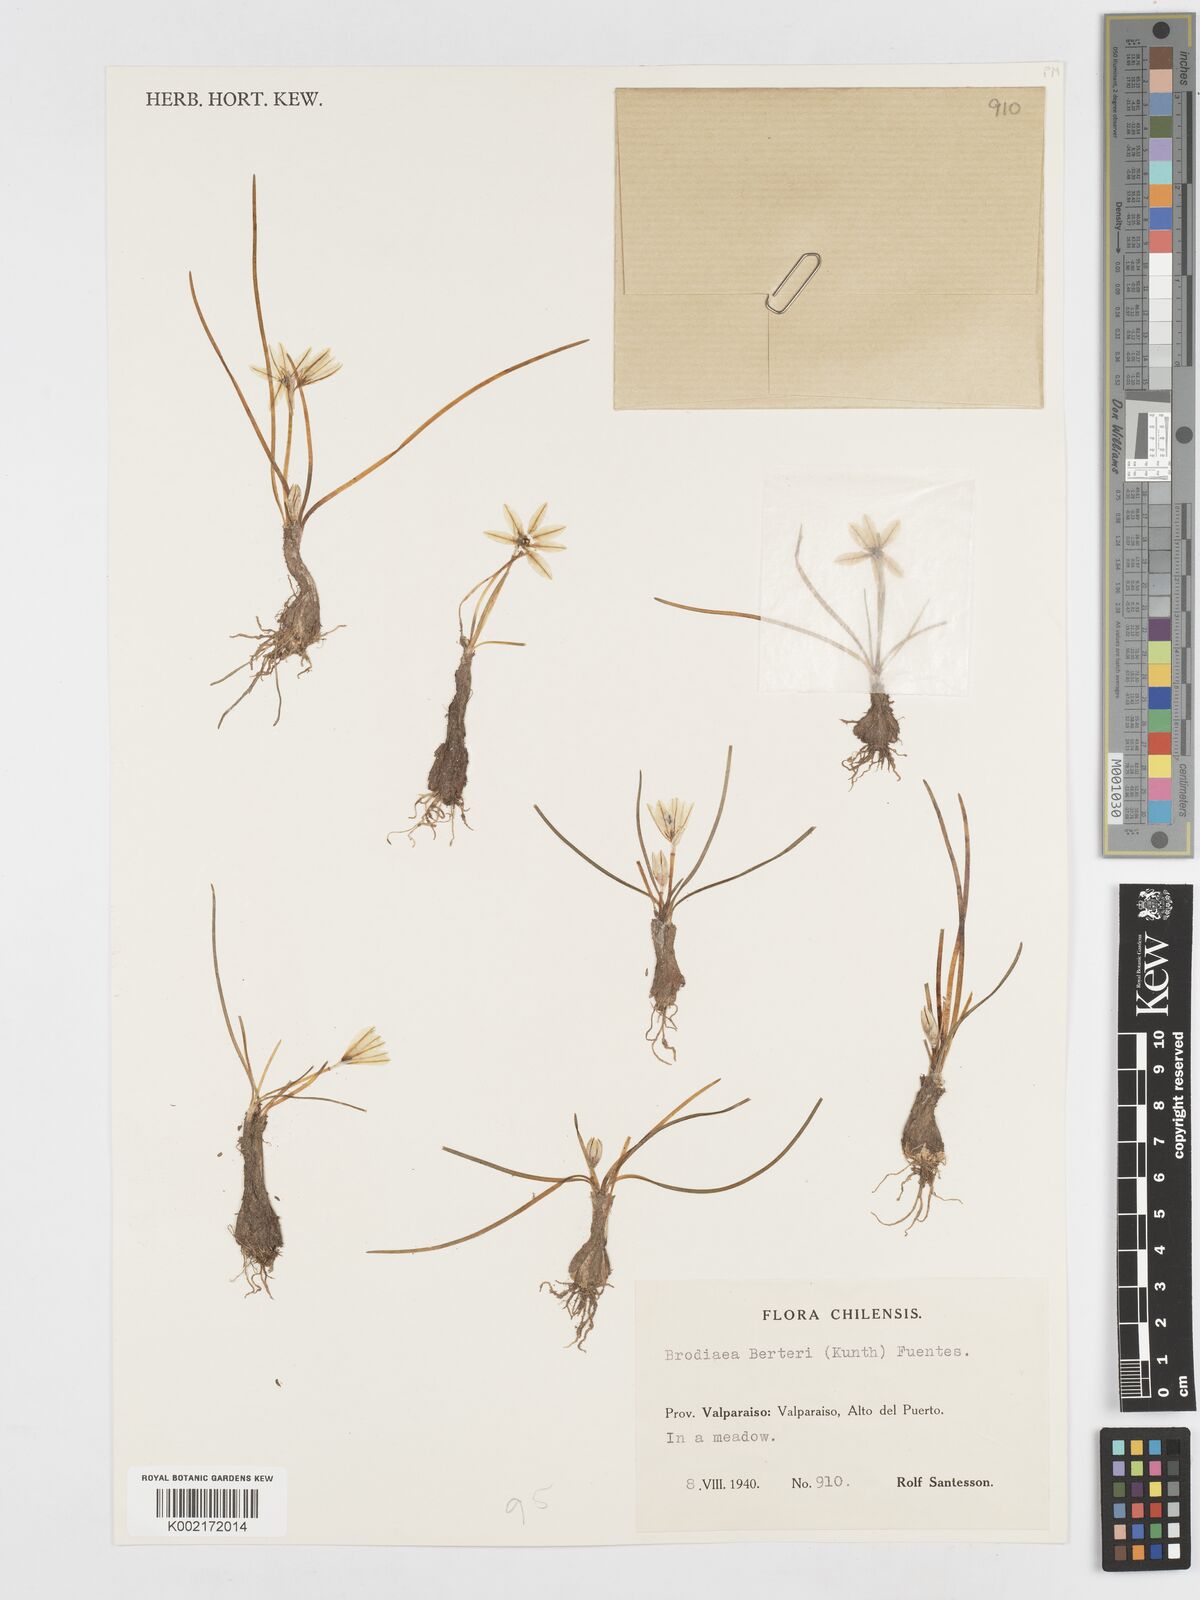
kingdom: Plantae
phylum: Tracheophyta
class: Liliopsida
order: Asparagales
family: Amaryllidaceae
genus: Tristagma
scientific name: Tristagma berteroi
